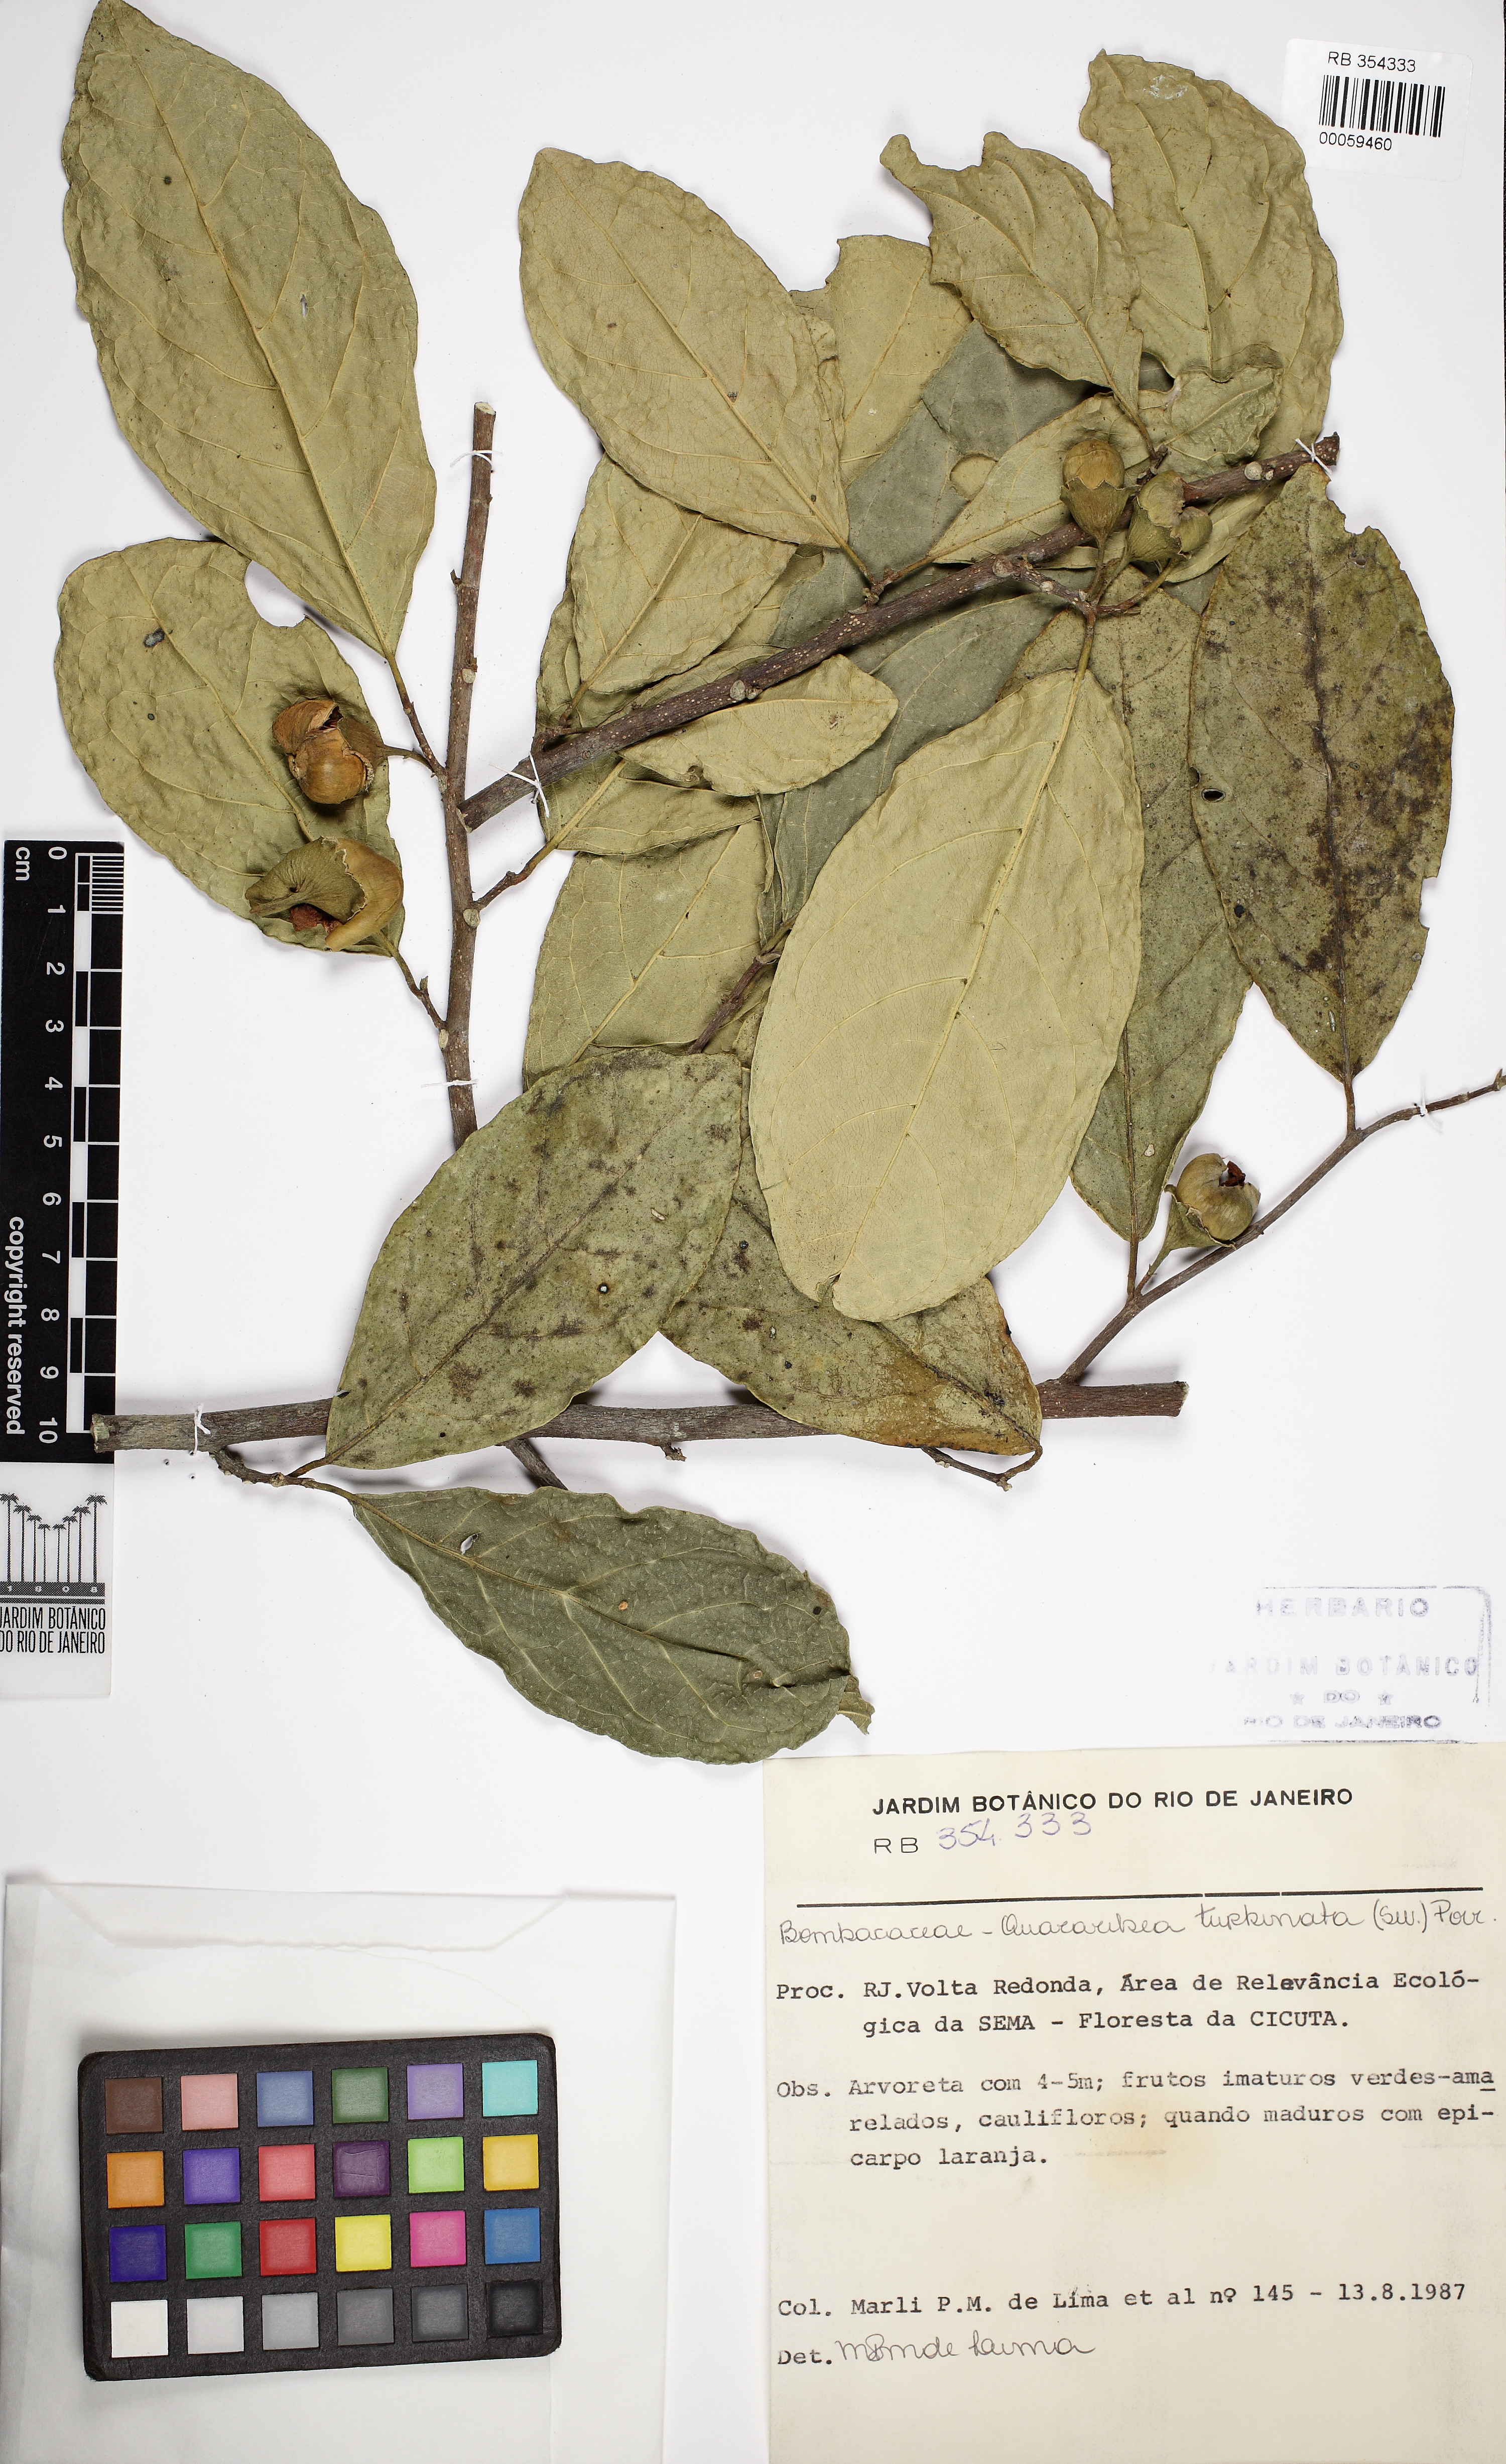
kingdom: Plantae
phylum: Tracheophyta
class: Magnoliopsida
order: Malvales
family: Malvaceae
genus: Quararibea
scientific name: Quararibea turbinata
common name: Swizzlestick-tree
